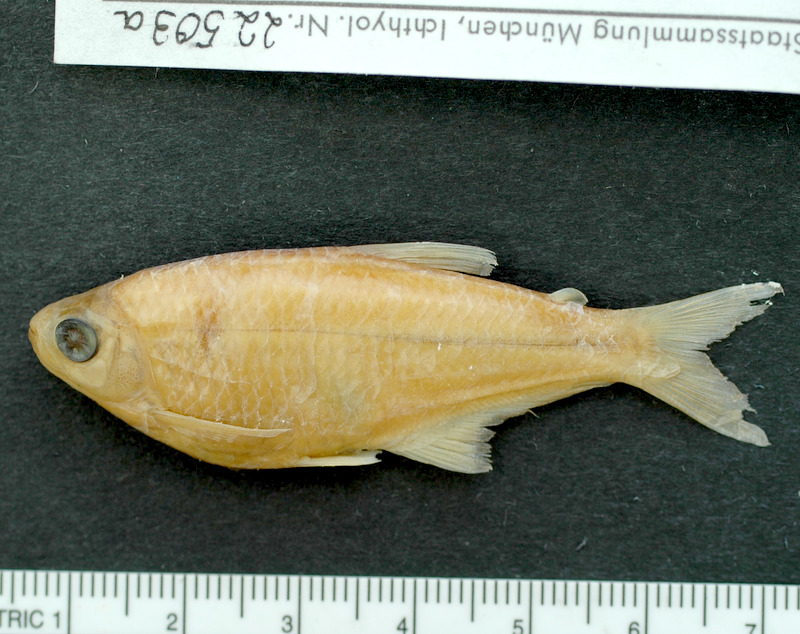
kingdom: Animalia
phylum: Chordata
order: Characiformes
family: Characidae
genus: Diapoma
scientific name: Diapoma terofali
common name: Tetra
